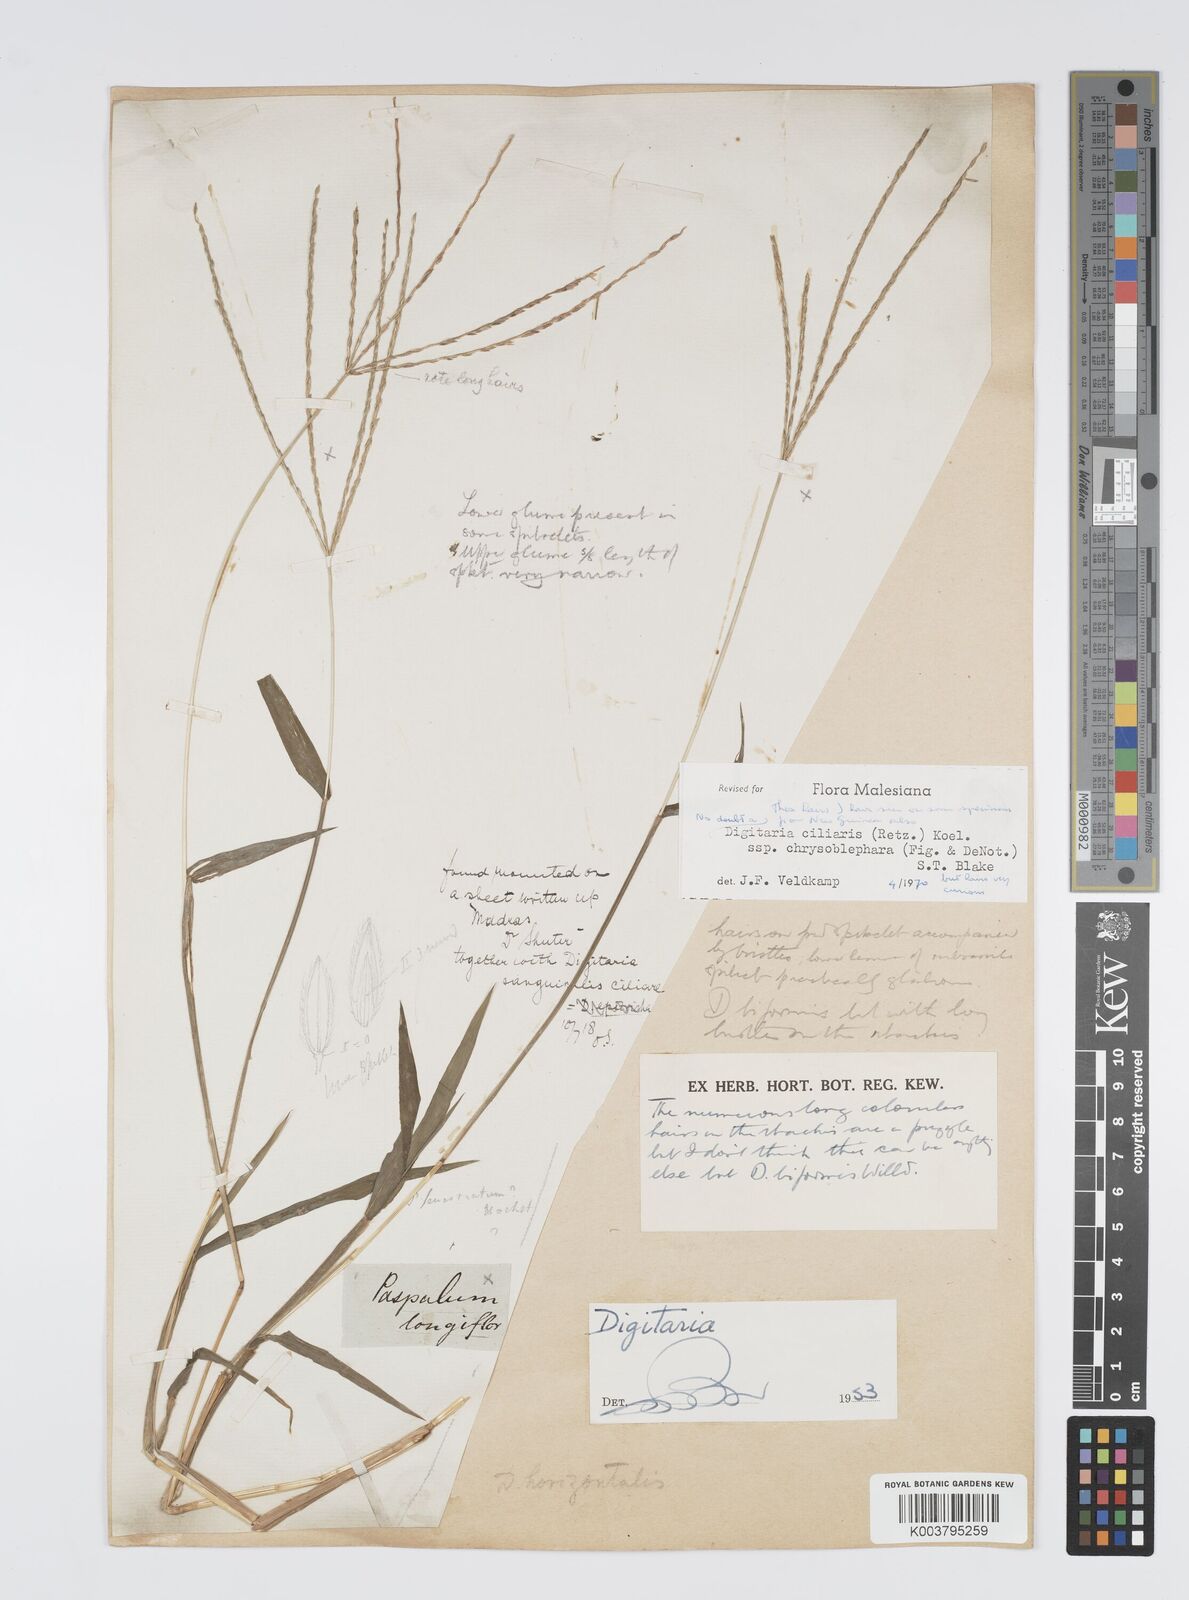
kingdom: Plantae
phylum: Tracheophyta
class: Liliopsida
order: Poales
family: Poaceae
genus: Digitaria
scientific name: Digitaria ciliaris
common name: Tropical finger-grass
